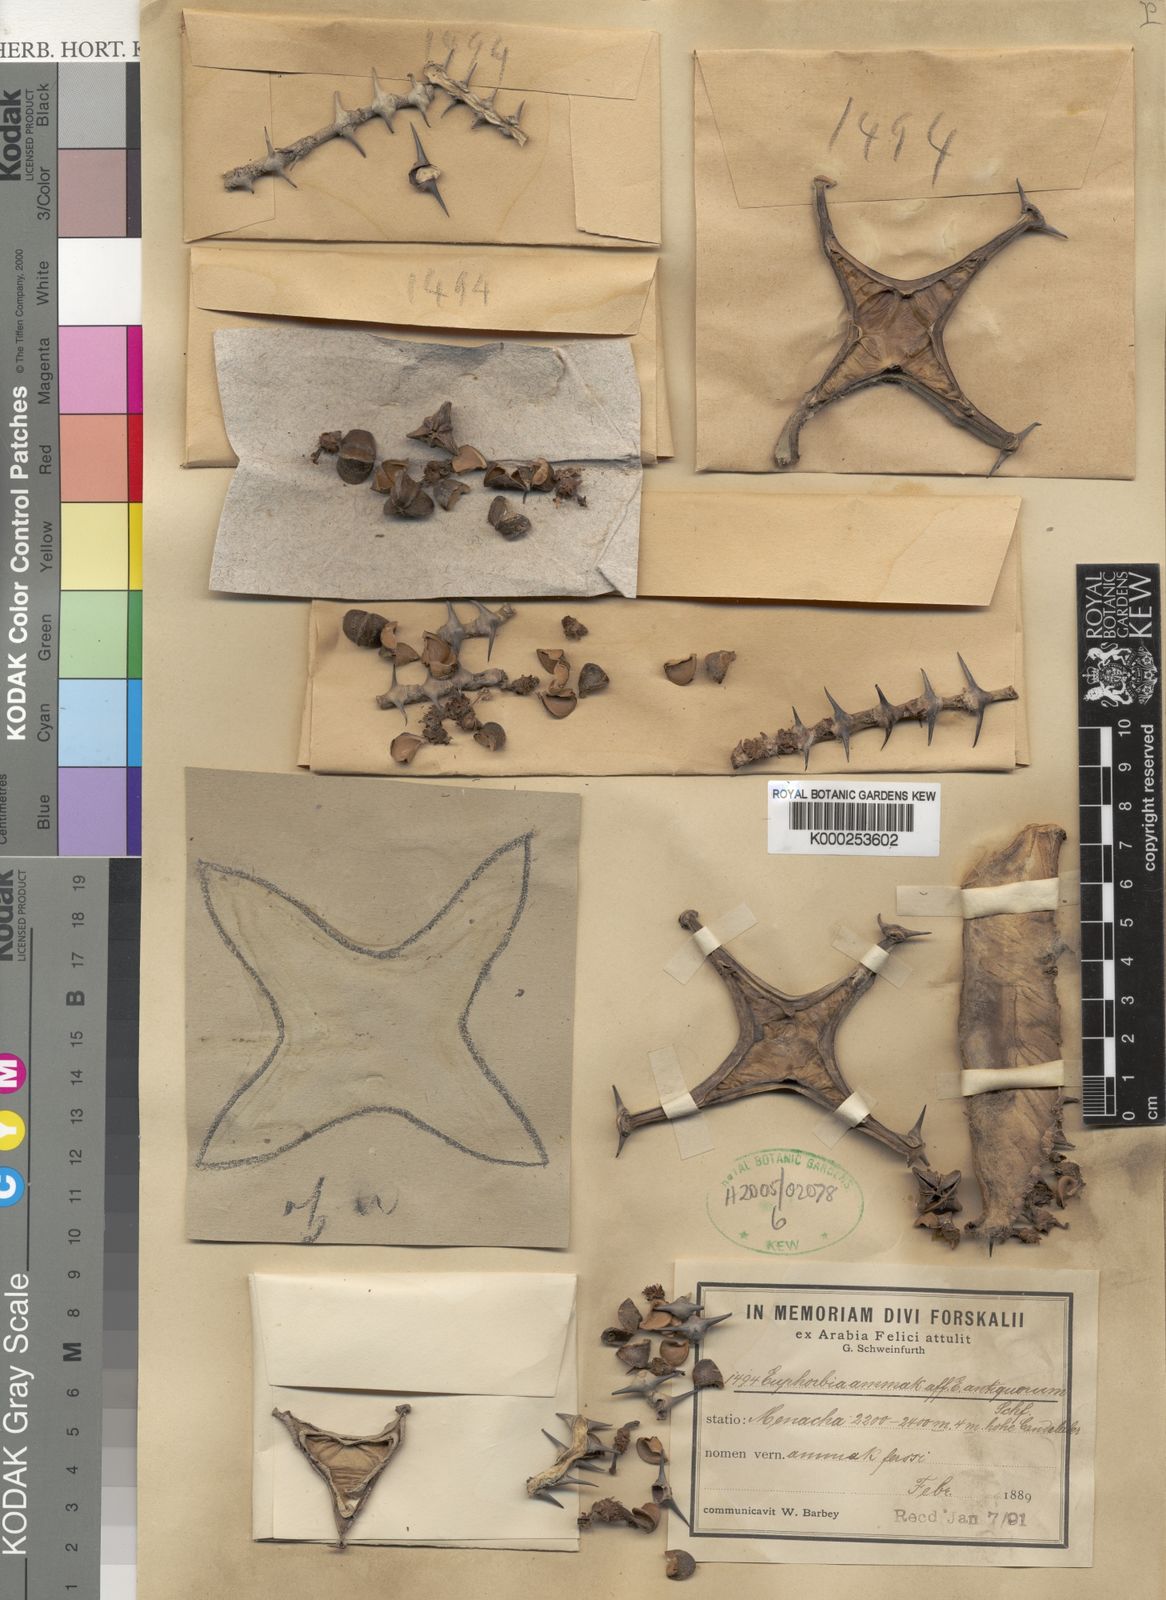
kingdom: Plantae
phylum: Tracheophyta
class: Magnoliopsida
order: Malpighiales
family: Euphorbiaceae
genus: Euphorbia
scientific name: Euphorbia ammak
